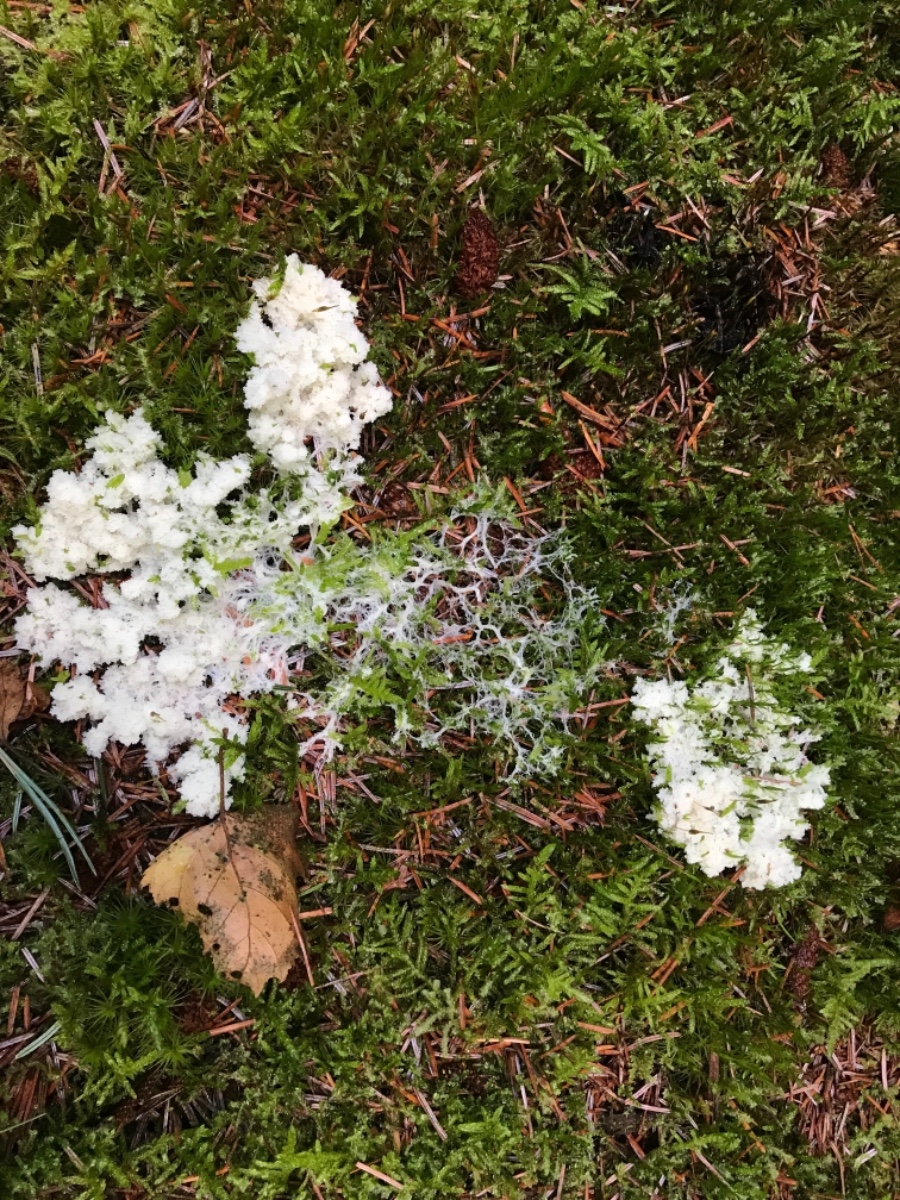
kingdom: Protozoa
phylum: Mycetozoa
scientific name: Mycetozoa
